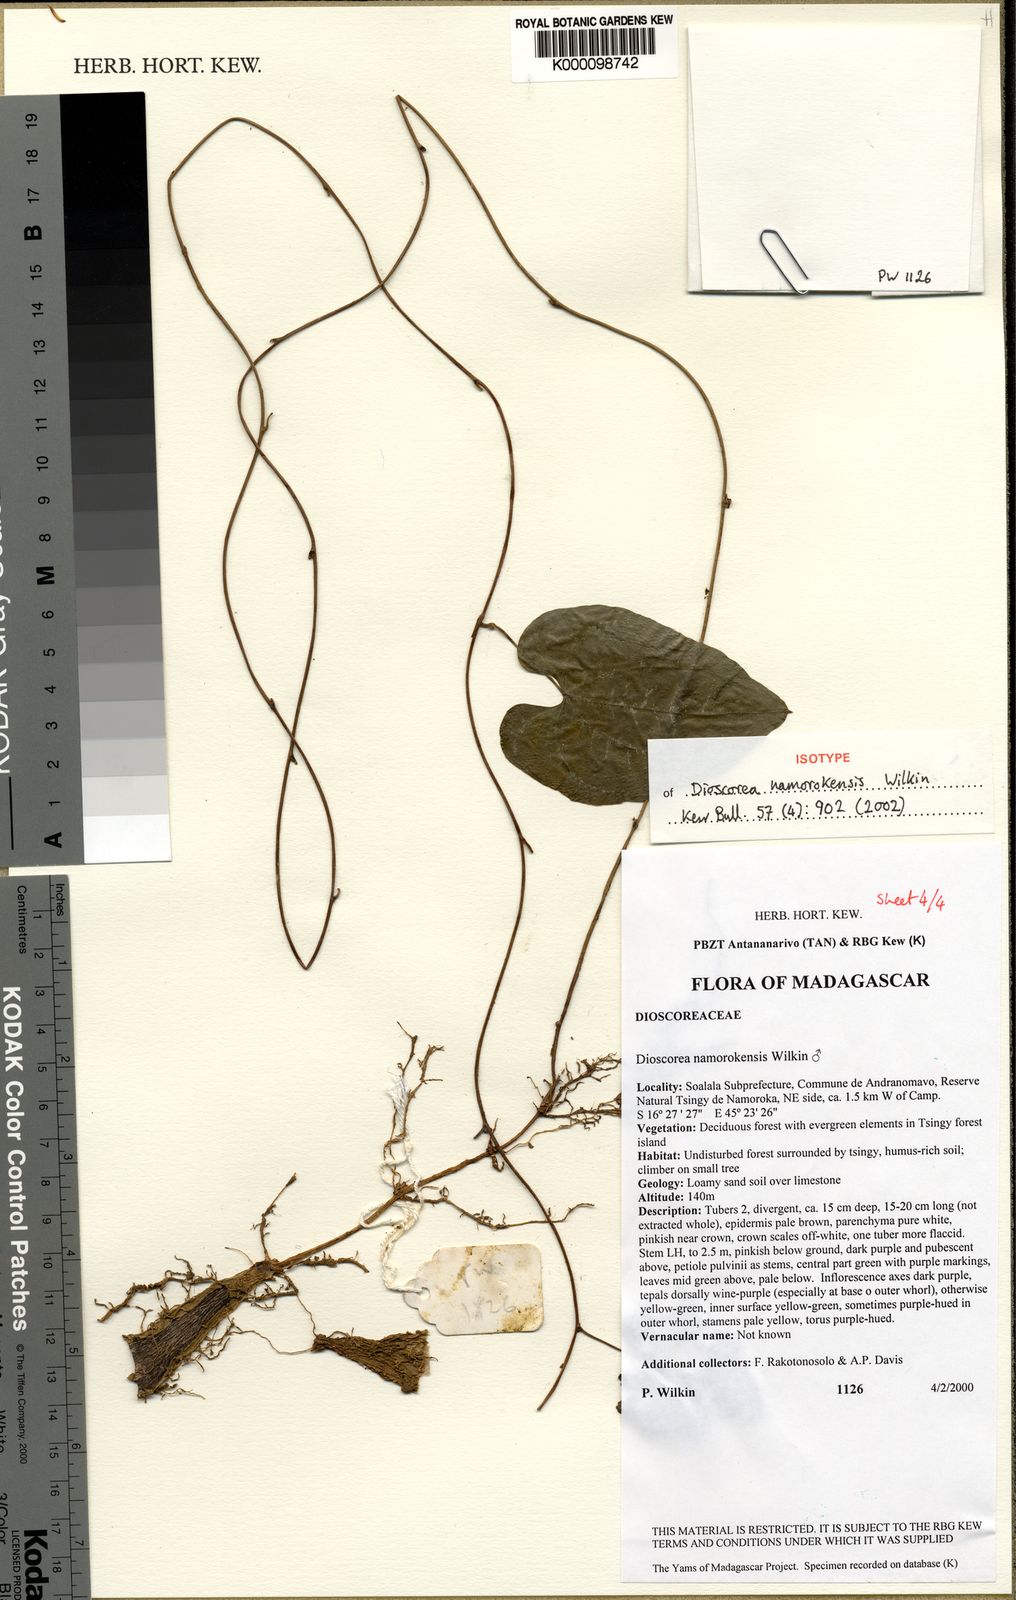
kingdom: Plantae
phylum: Tracheophyta
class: Liliopsida
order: Dioscoreales
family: Dioscoreaceae
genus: Dioscorea
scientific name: Dioscorea namorokensis
